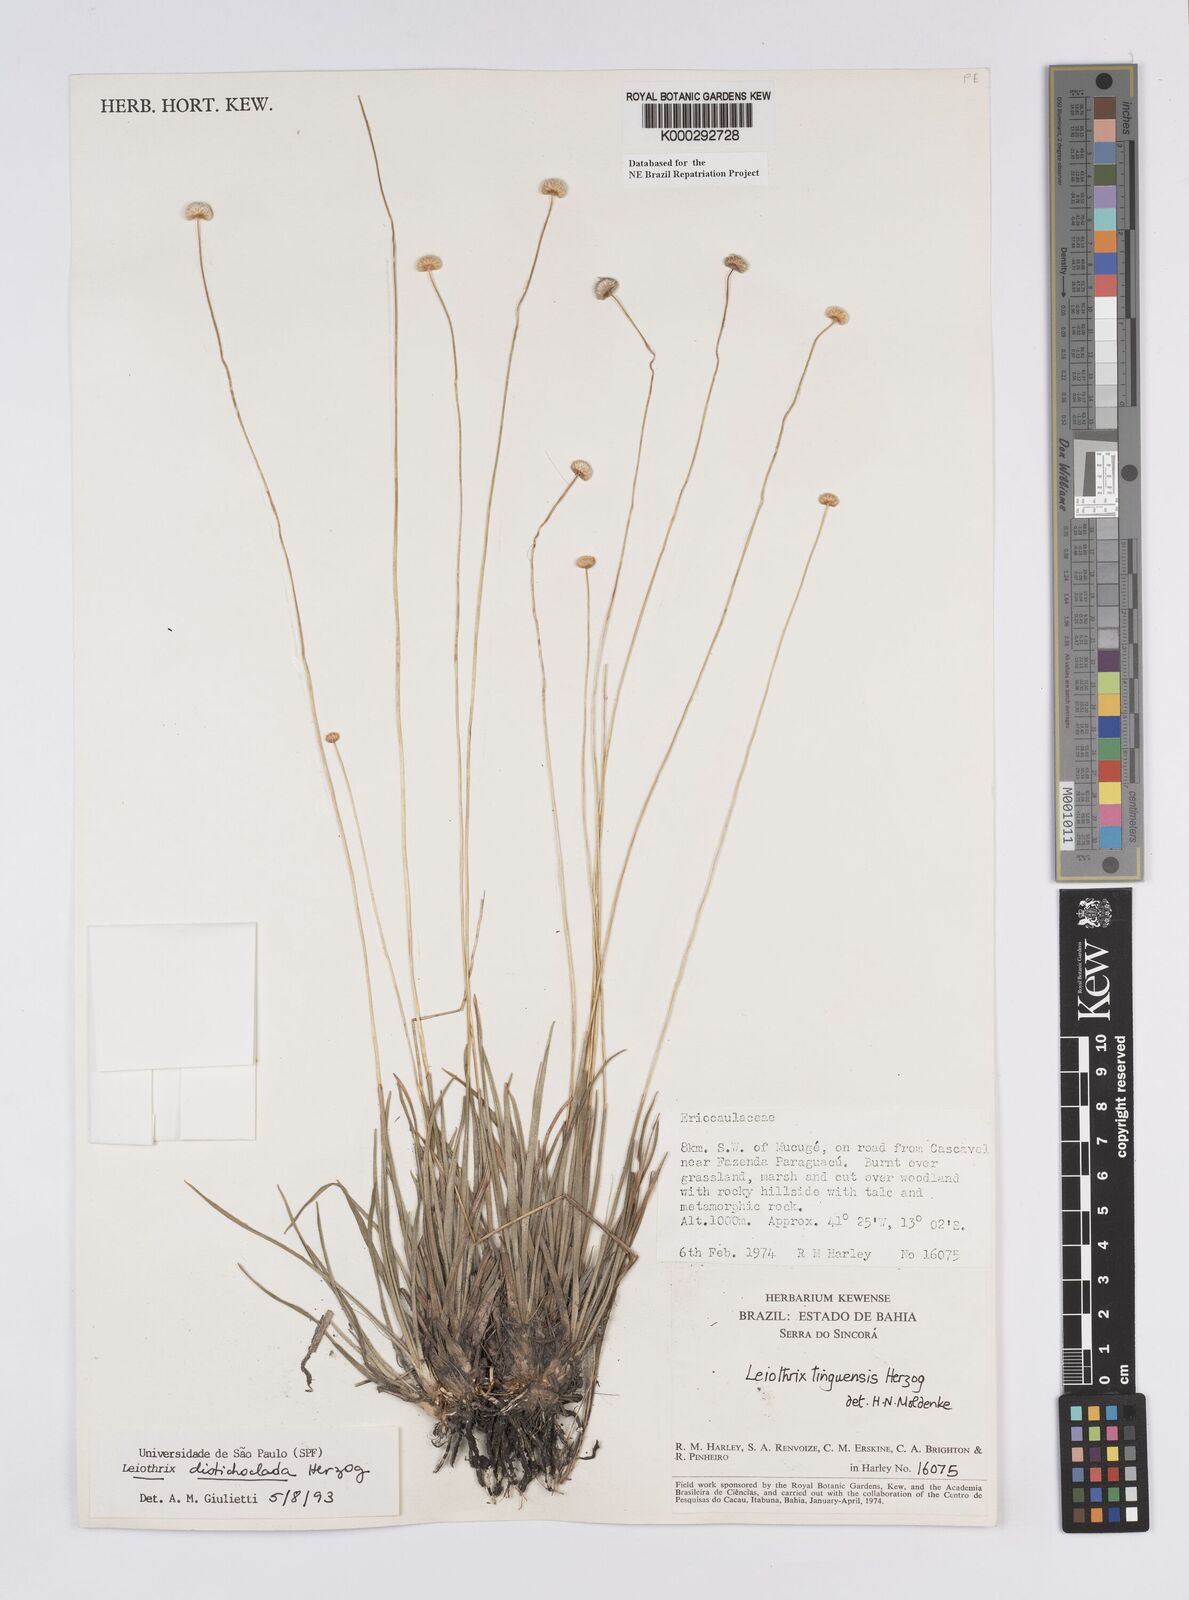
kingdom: Plantae
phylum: Tracheophyta
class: Liliopsida
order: Poales
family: Eriocaulaceae
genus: Leiothrix
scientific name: Leiothrix distichoclada
